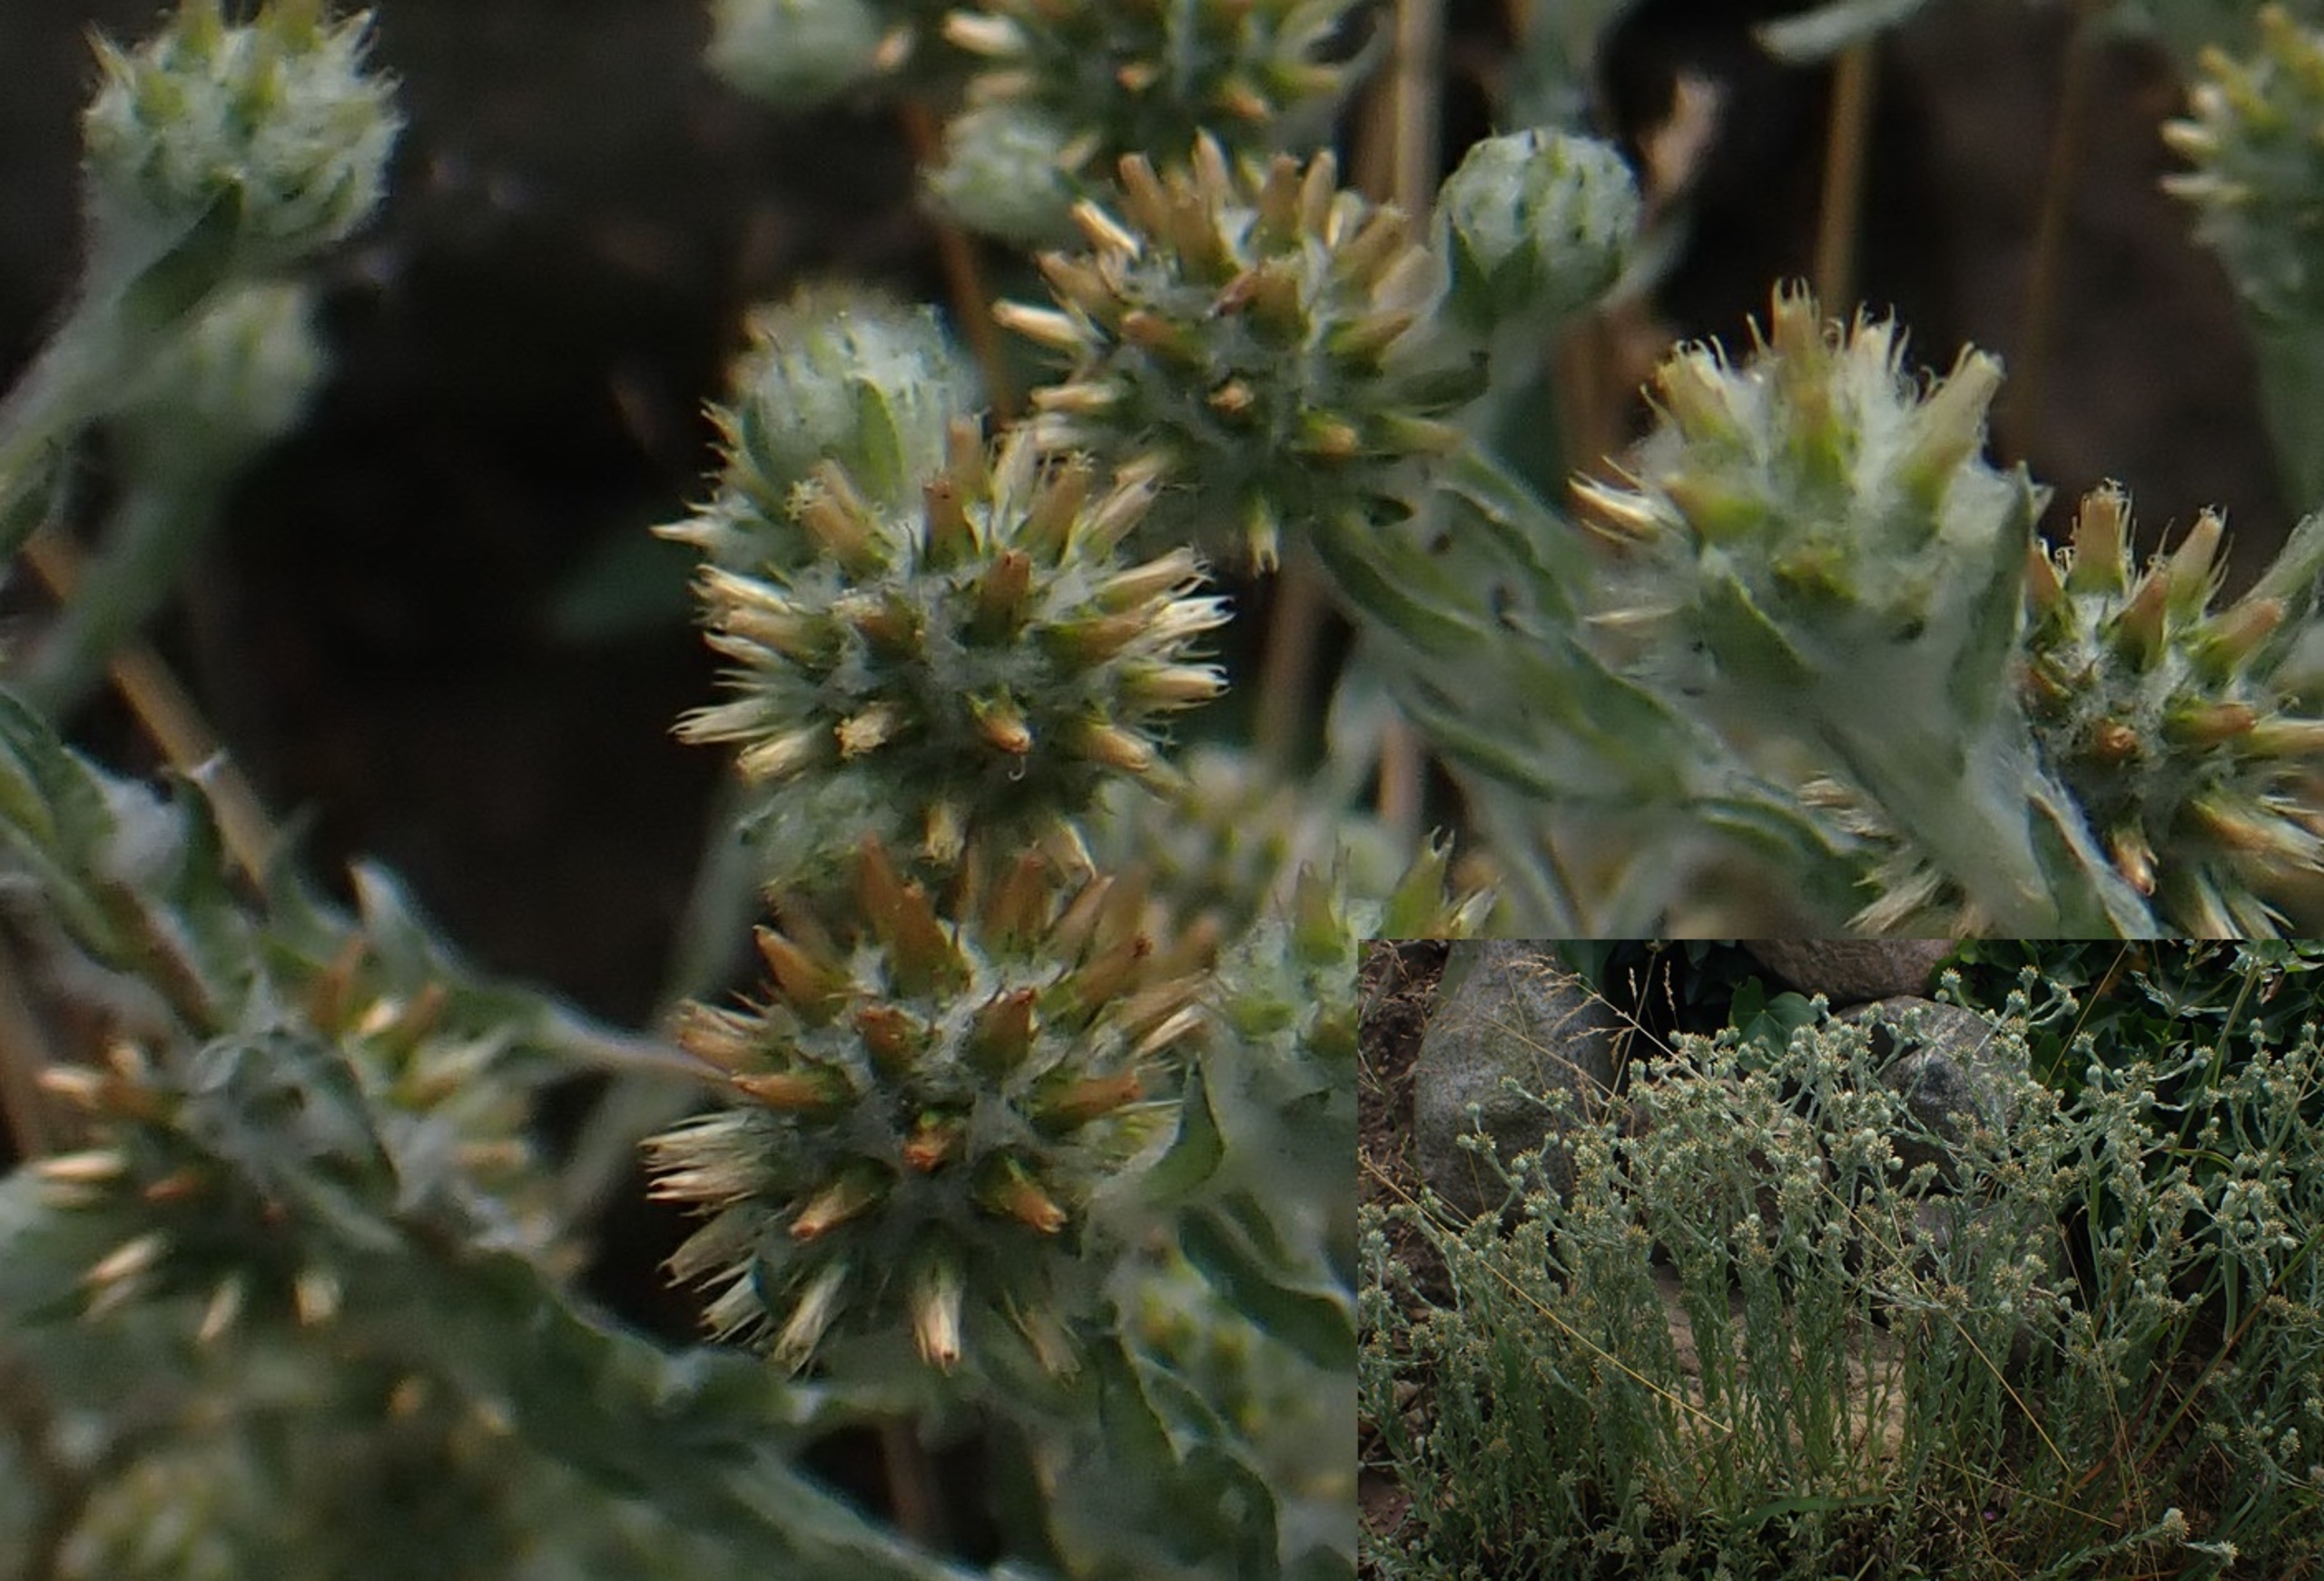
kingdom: Plantae
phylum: Tracheophyta
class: Magnoliopsida
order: Asterales
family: Asteraceae
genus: Filago
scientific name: Filago germanica
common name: Kugle-museurt
